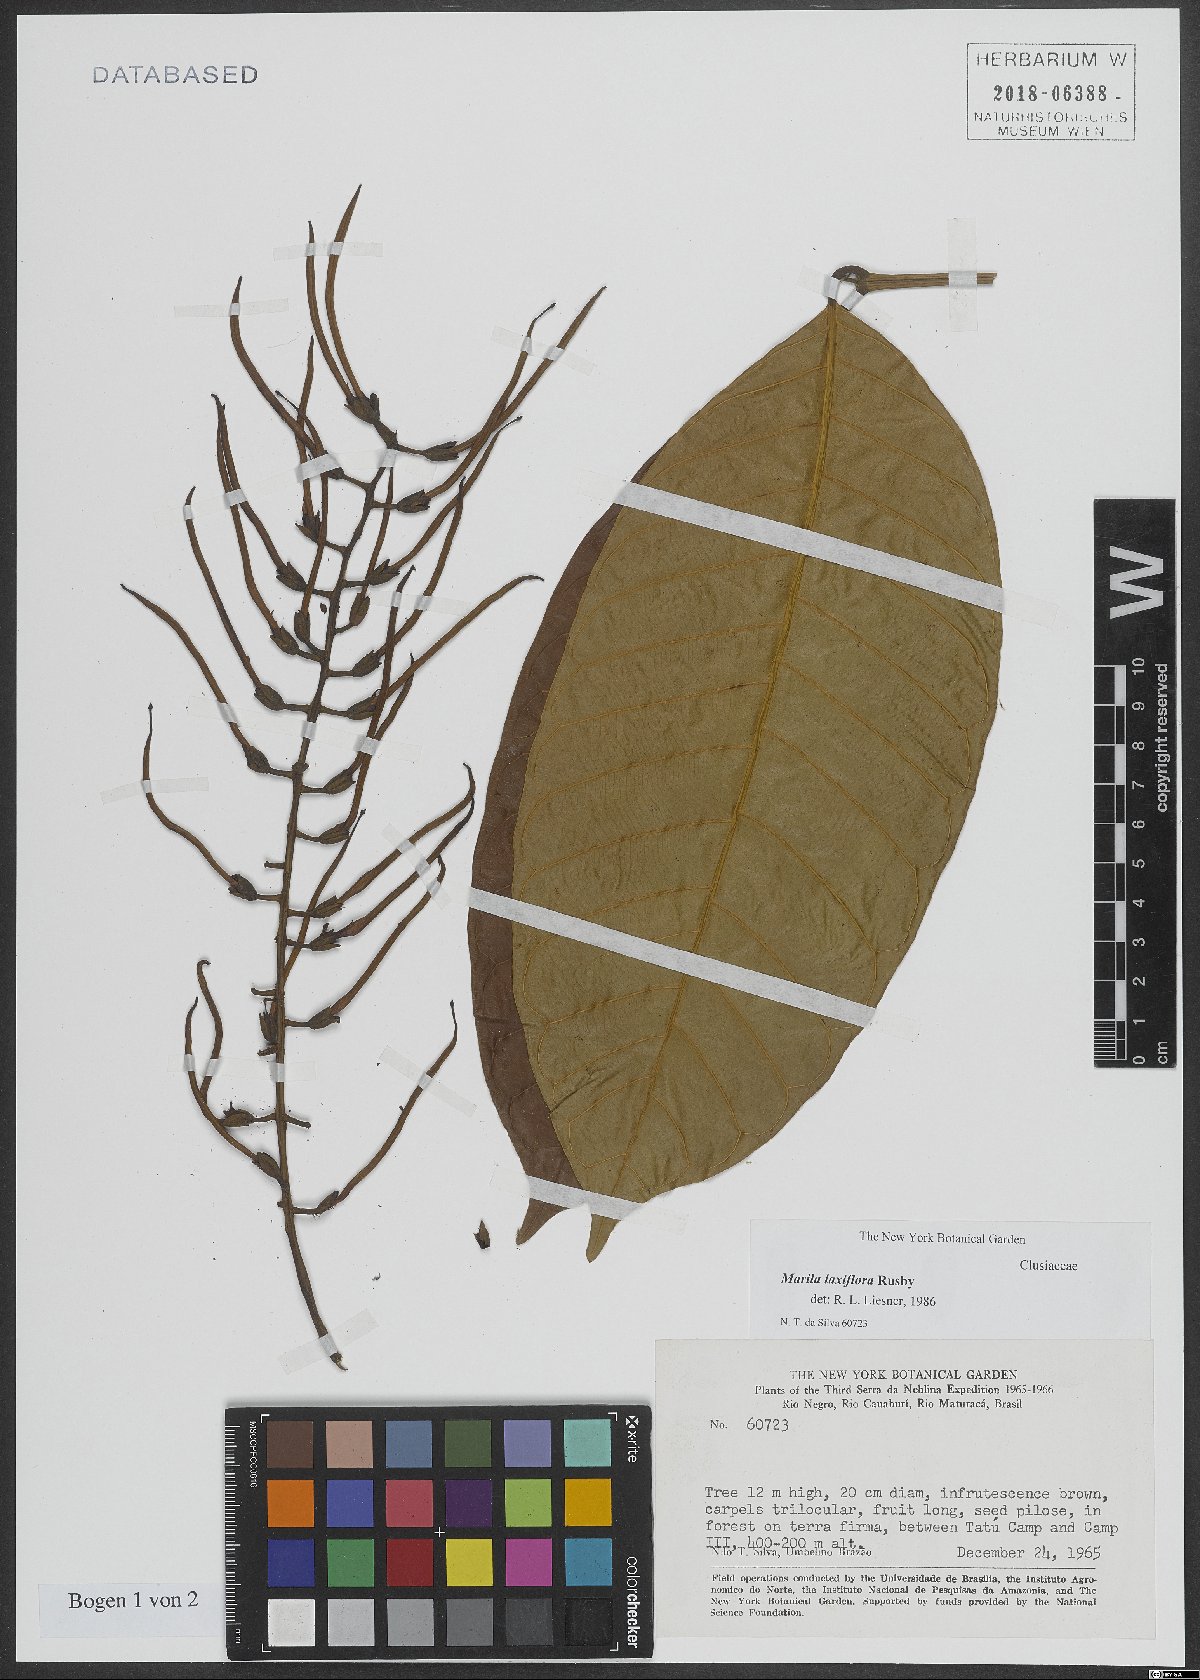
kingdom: Plantae
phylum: Tracheophyta
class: Magnoliopsida
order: Malpighiales
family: Calophyllaceae
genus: Marila
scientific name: Marila laxiflora
